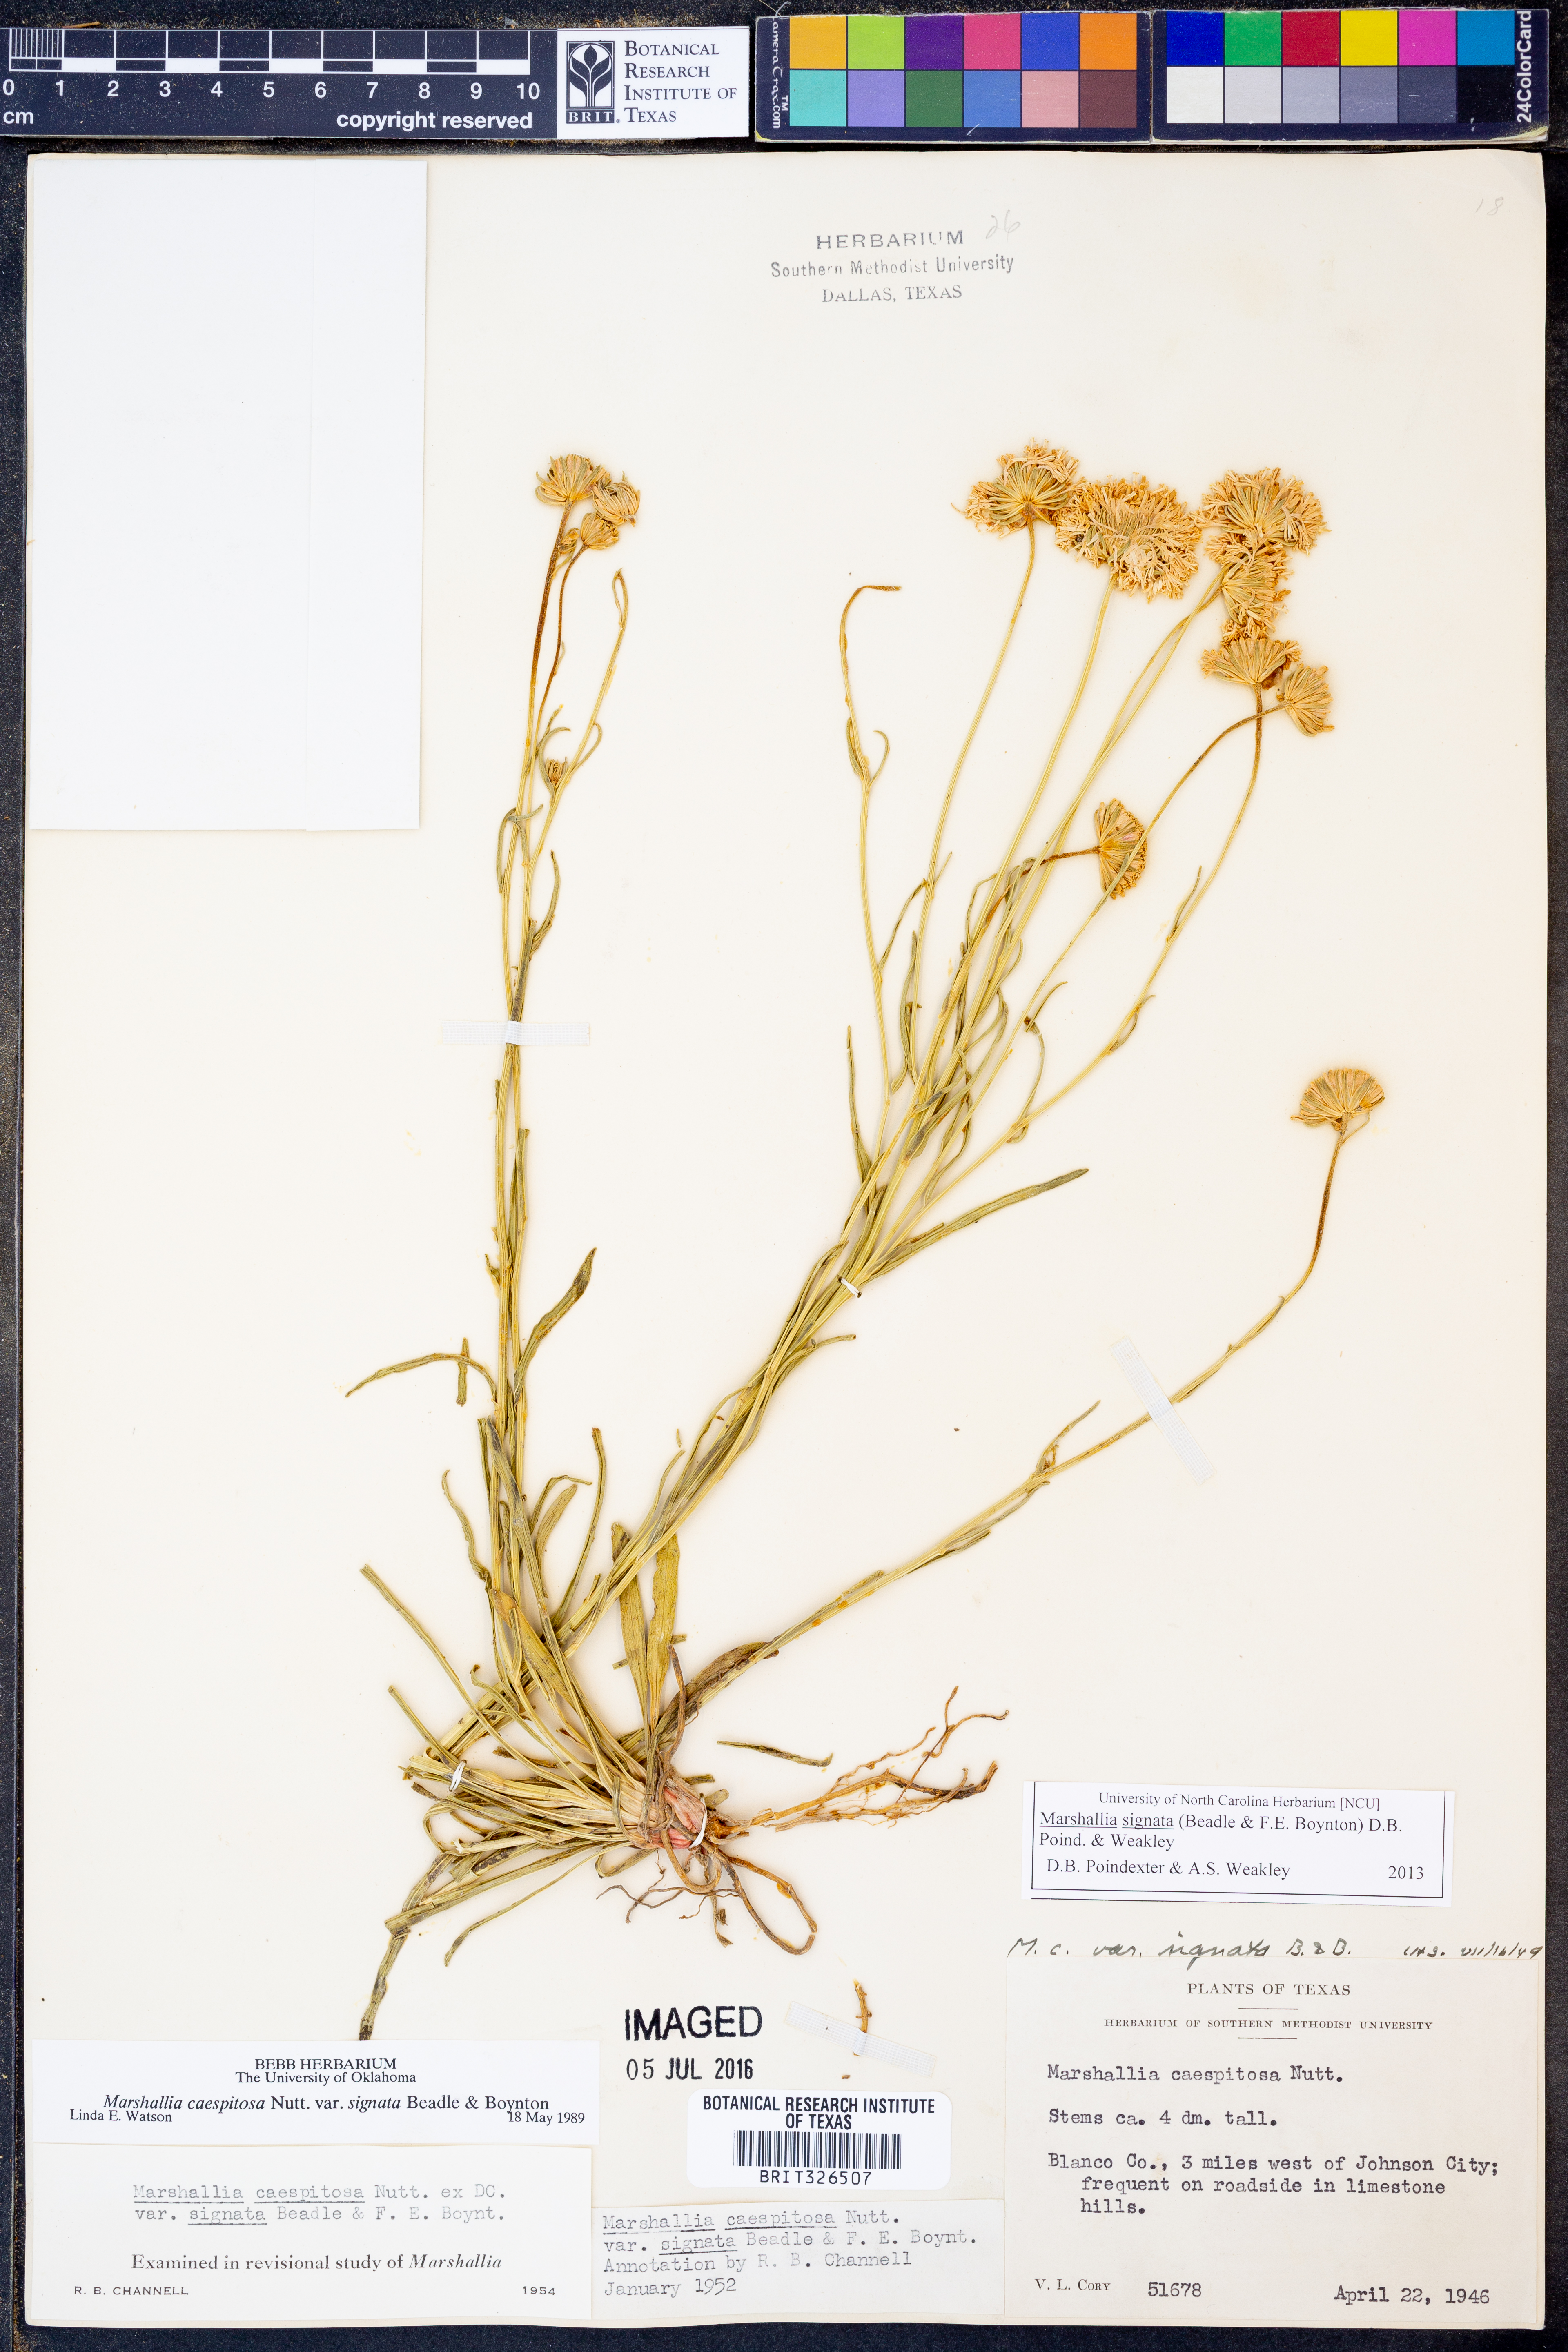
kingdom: Plantae
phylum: Tracheophyta
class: Magnoliopsida
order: Asterales
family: Asteraceae
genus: Marshallia
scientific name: Marshallia
